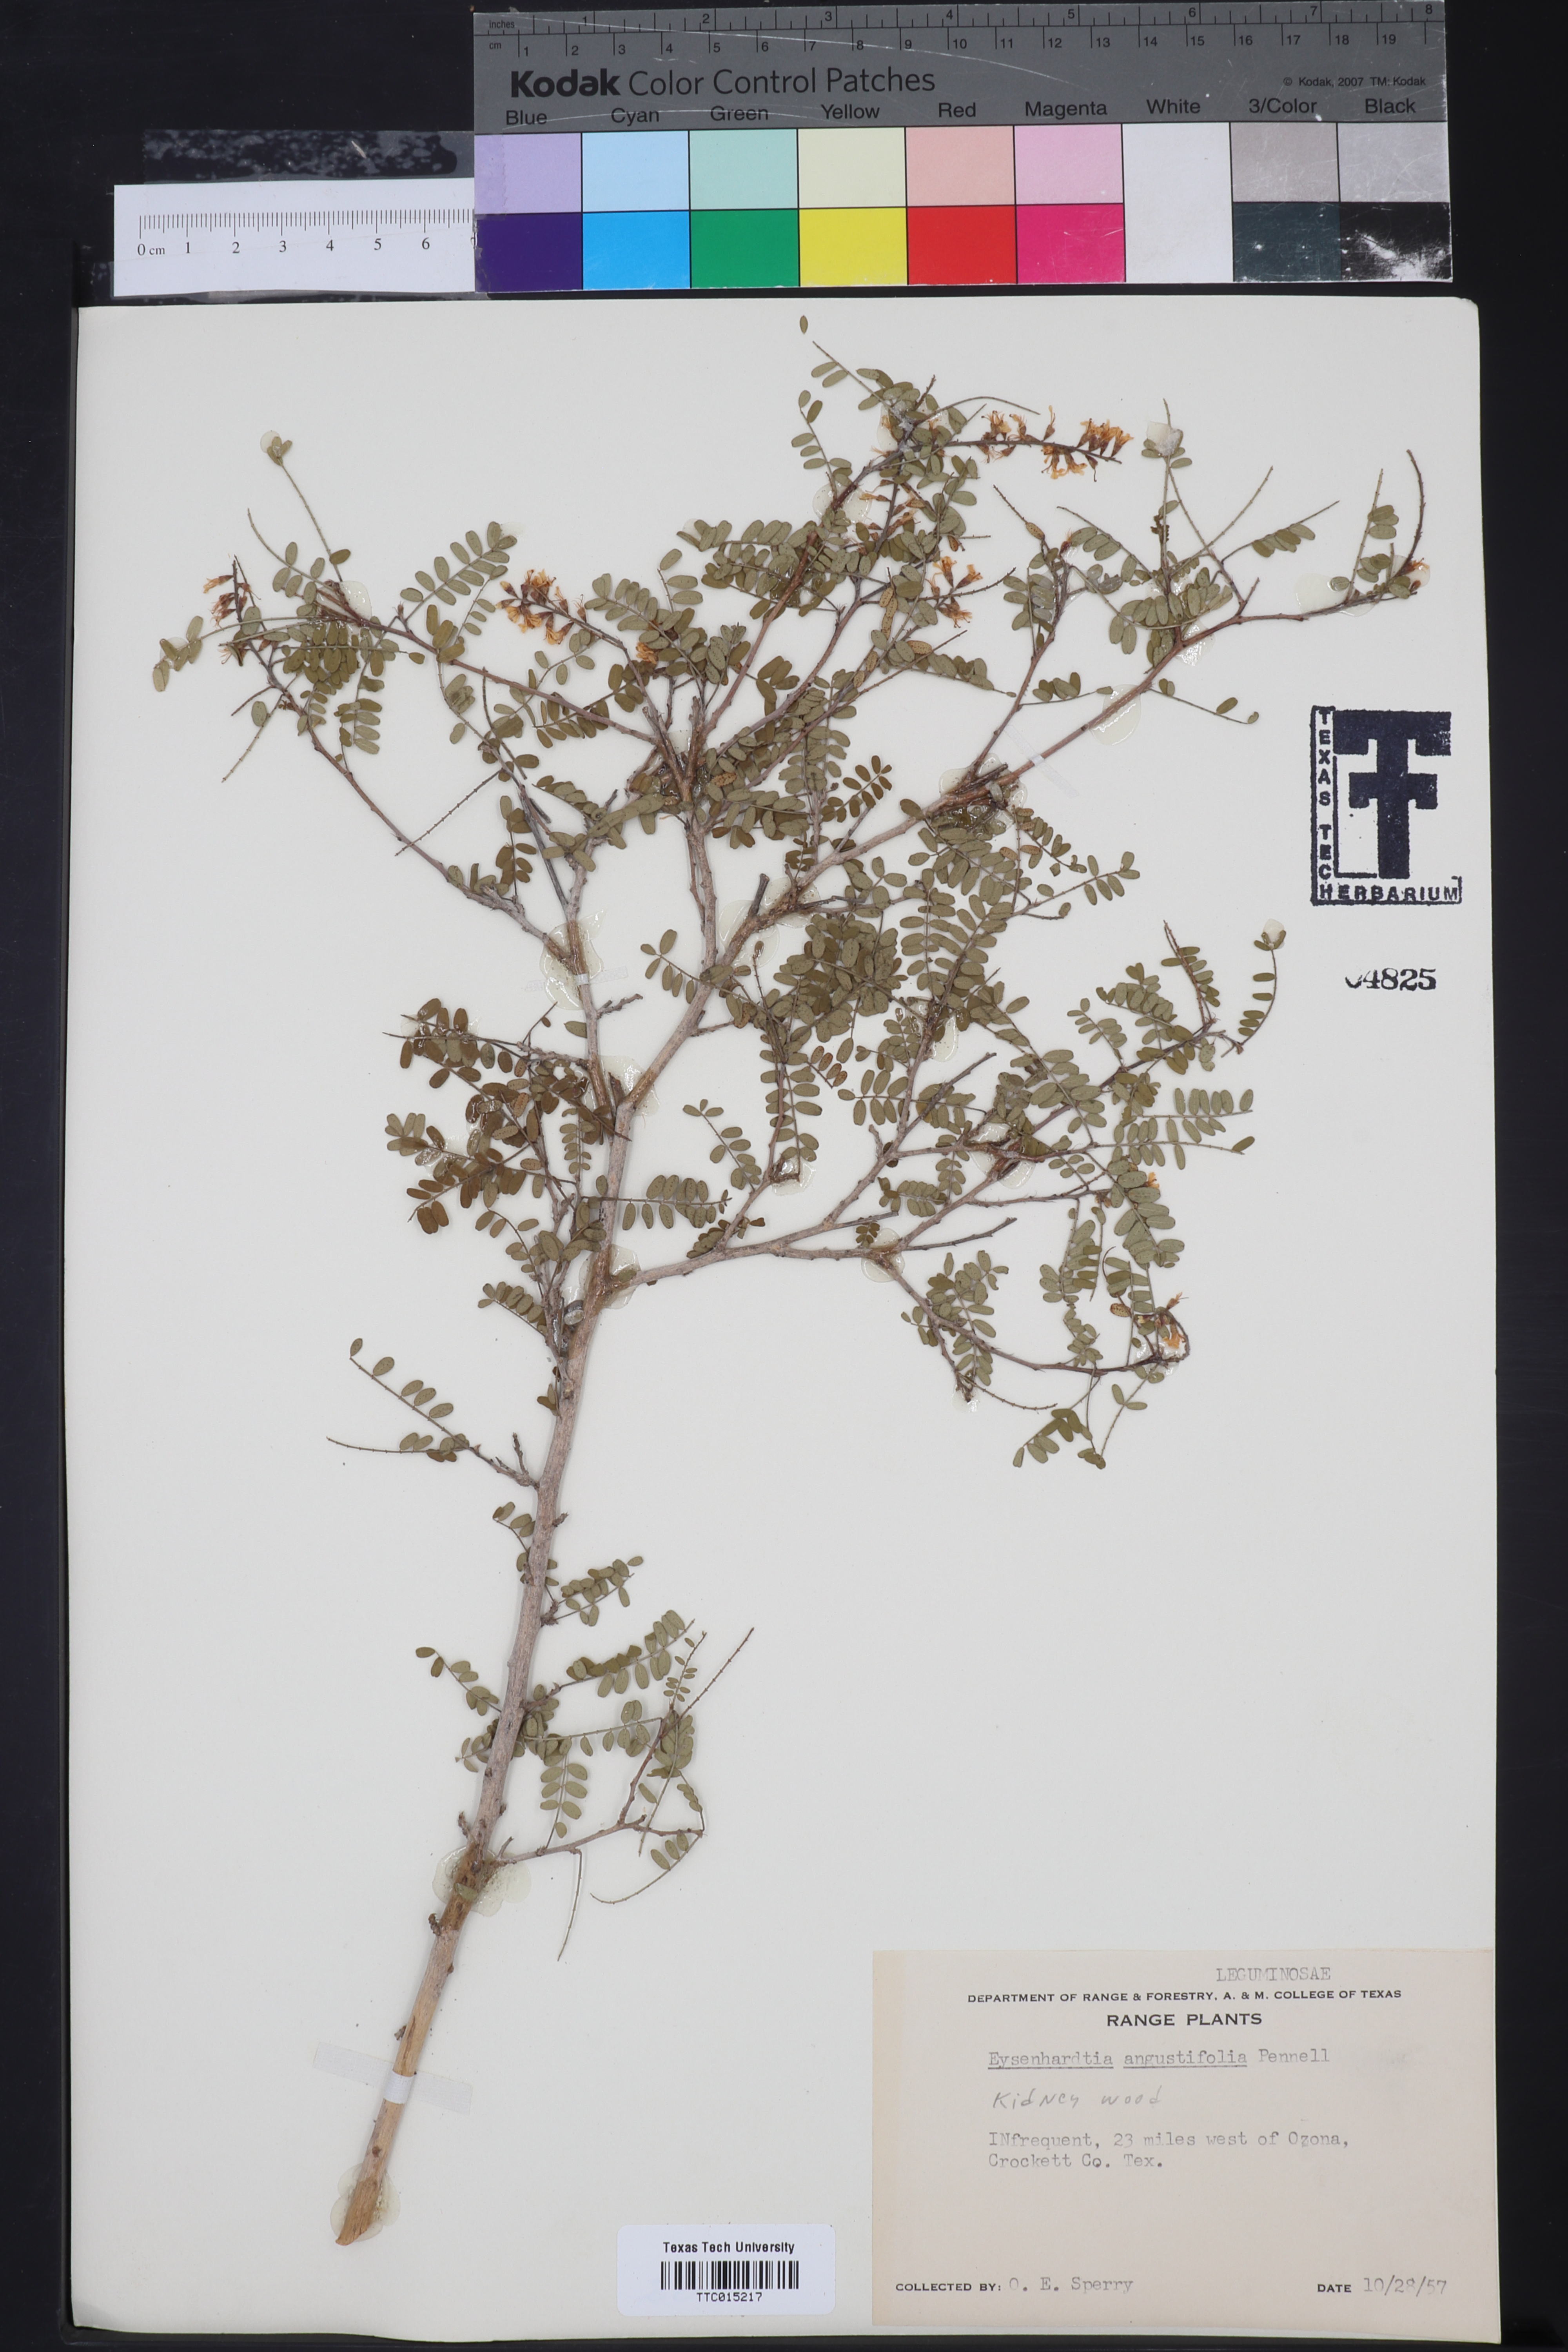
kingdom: Plantae
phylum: Tracheophyta
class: Magnoliopsida
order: Fabales
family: Fabaceae
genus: Eysenhardtia
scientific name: Eysenhardtia texana
